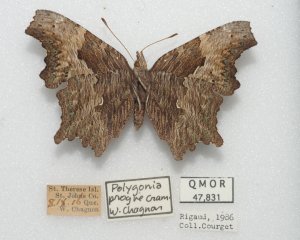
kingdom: Animalia
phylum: Arthropoda
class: Insecta
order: Lepidoptera
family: Nymphalidae
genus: Polygonia
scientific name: Polygonia faunus
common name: Green Comma
